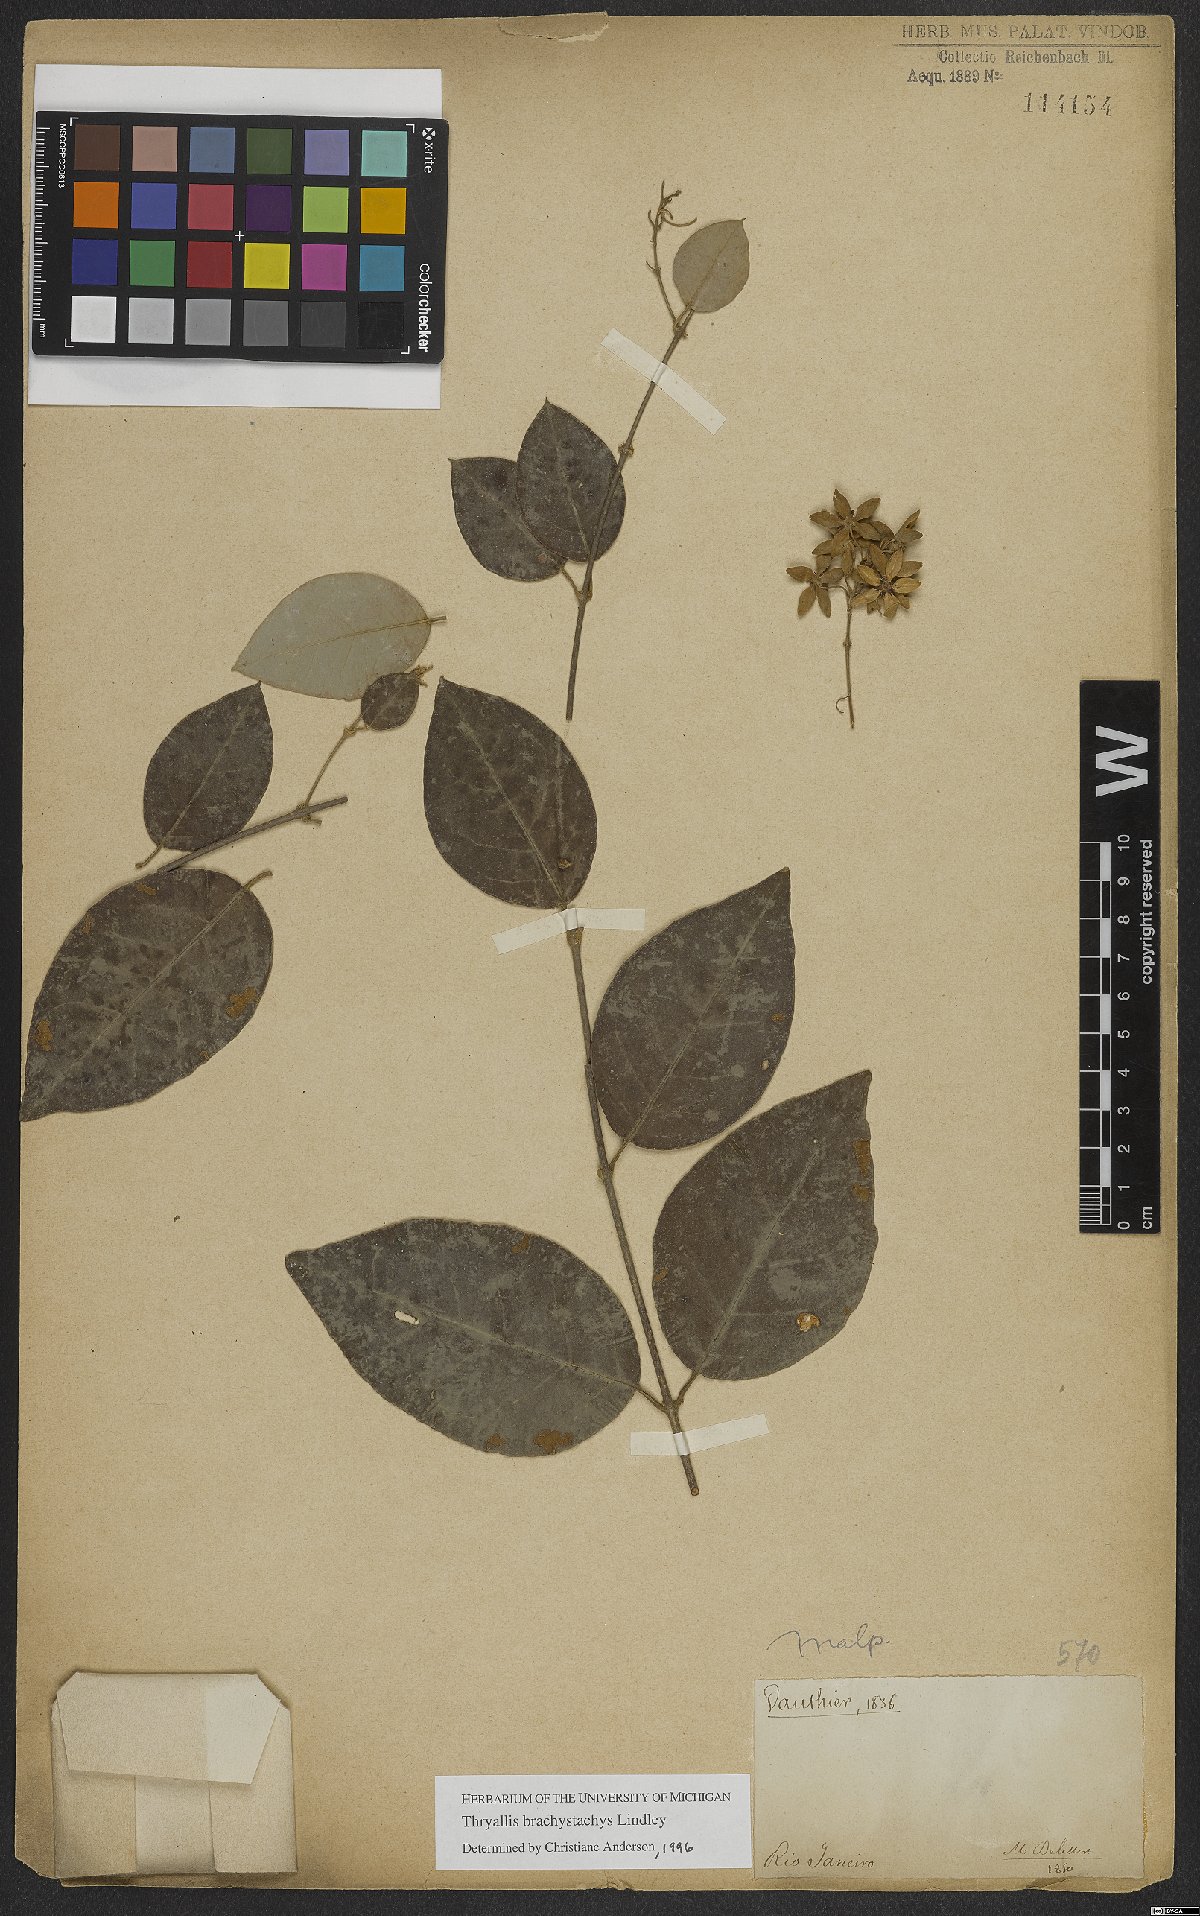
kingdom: Plantae
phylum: Tracheophyta
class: Magnoliopsida
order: Malpighiales
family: Malpighiaceae
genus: Thryallis
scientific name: Thryallis brachystachys
